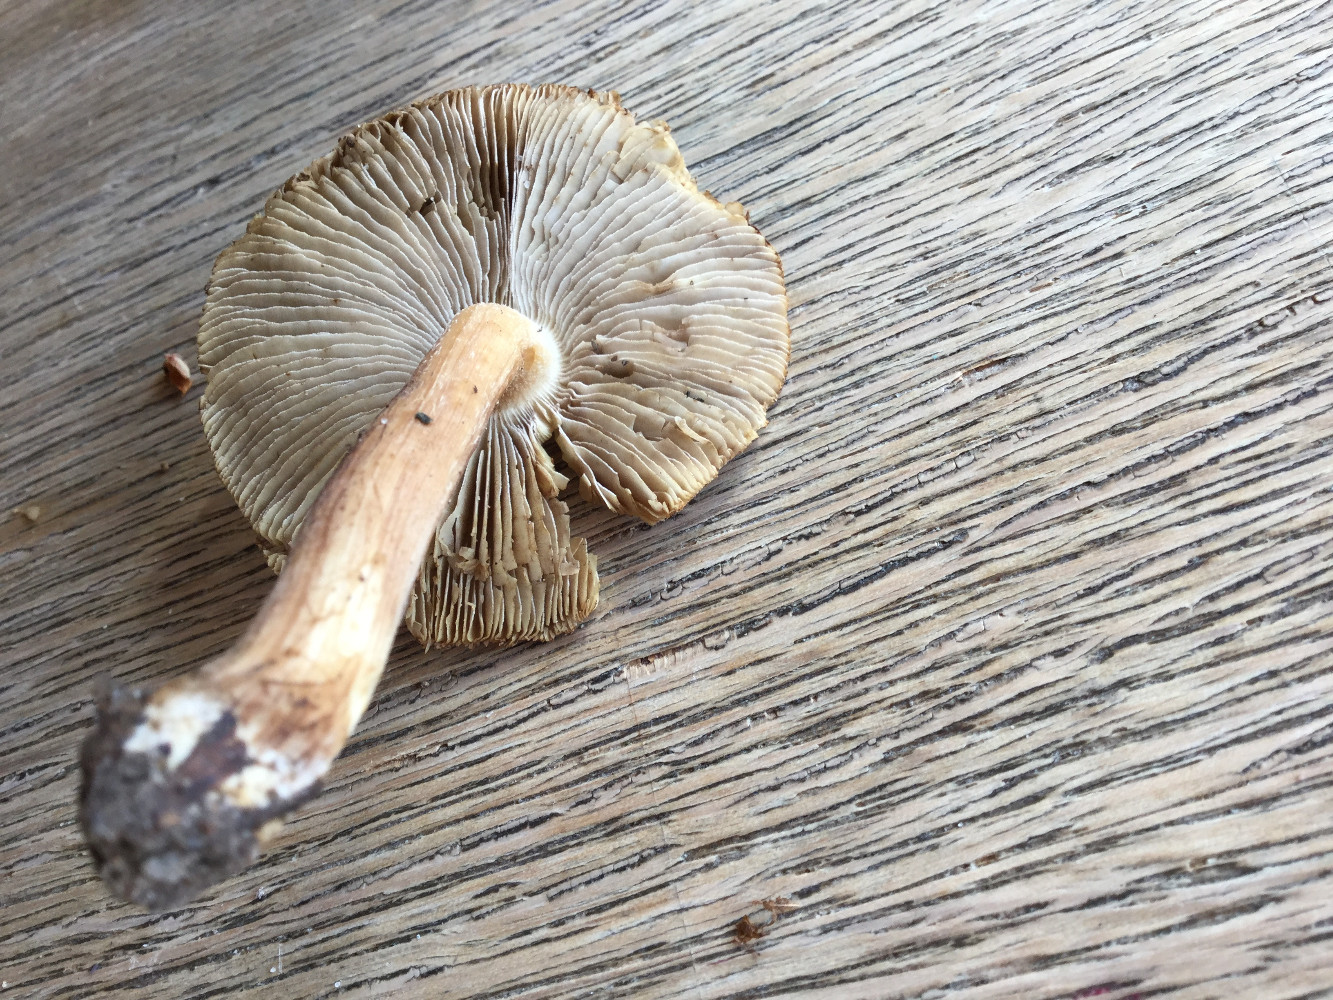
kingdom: Fungi
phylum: Basidiomycota
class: Agaricomycetes
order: Agaricales
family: Inocybaceae
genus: Inosperma
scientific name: Inosperma
